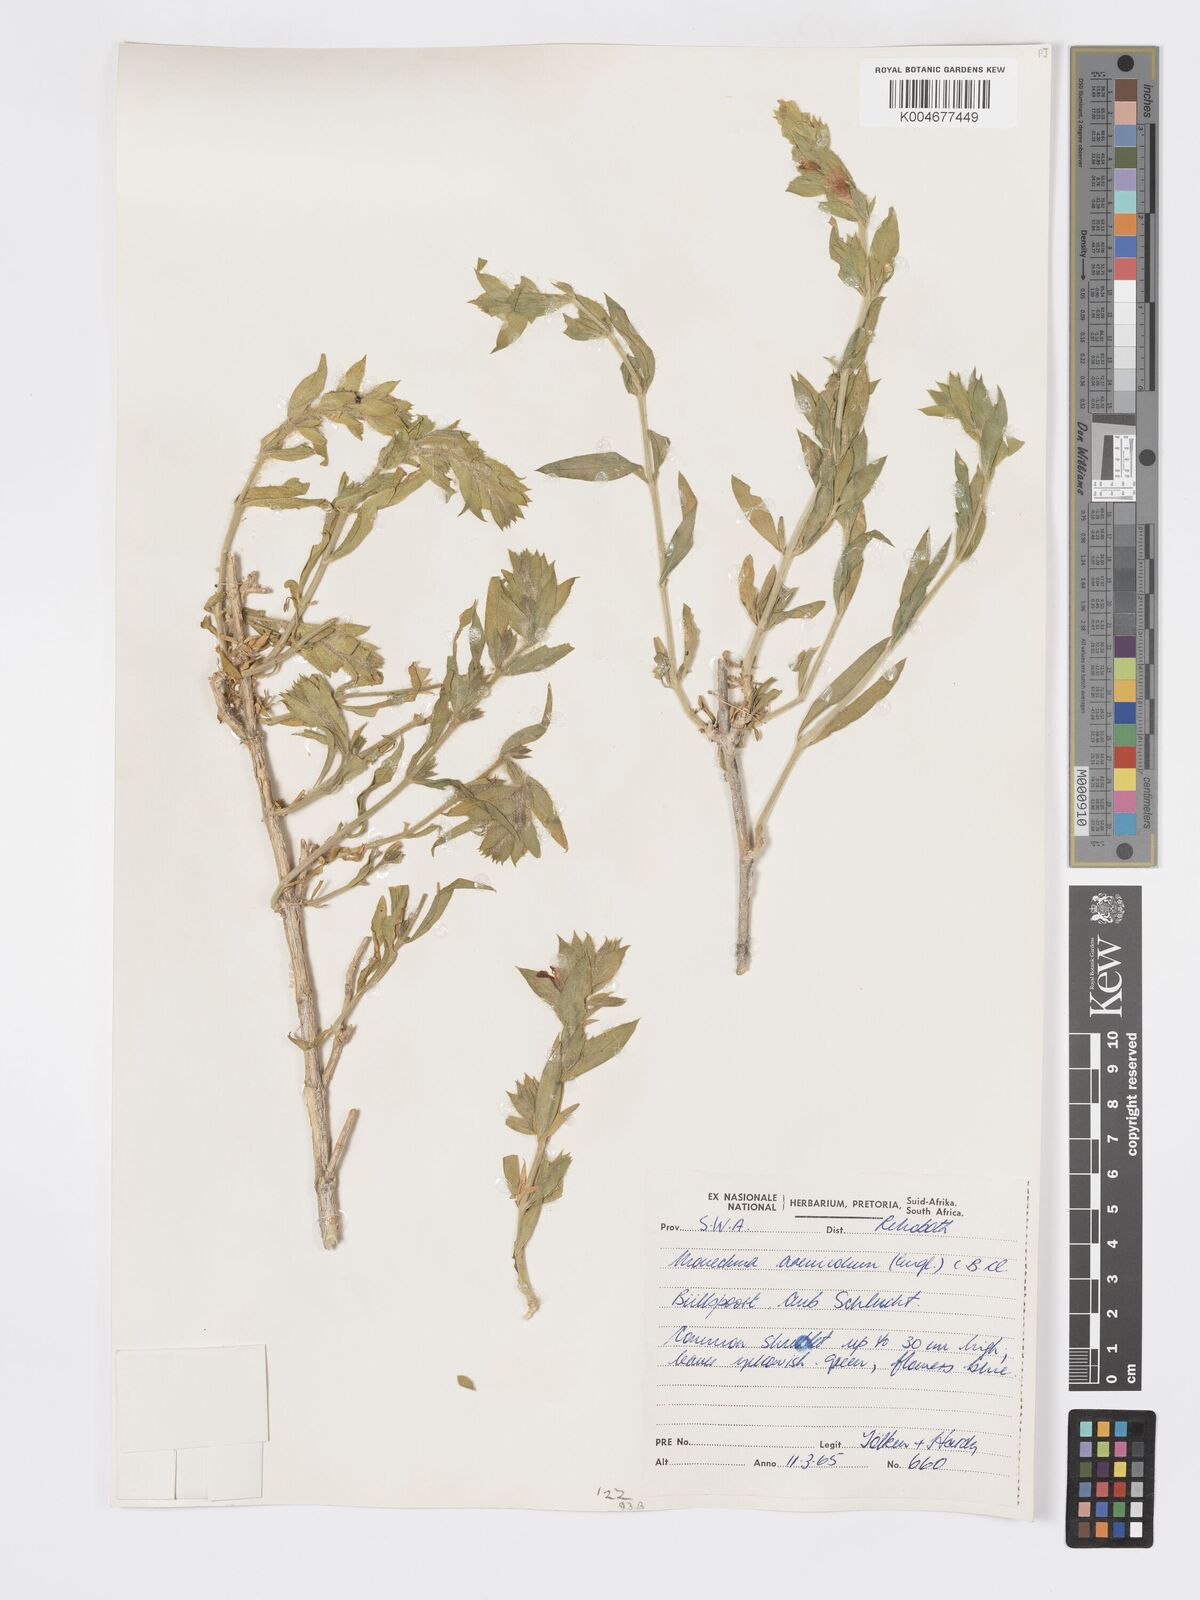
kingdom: Plantae
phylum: Tracheophyta
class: Magnoliopsida
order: Lamiales
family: Acanthaceae
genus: Pogonospermum
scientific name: Pogonospermum
